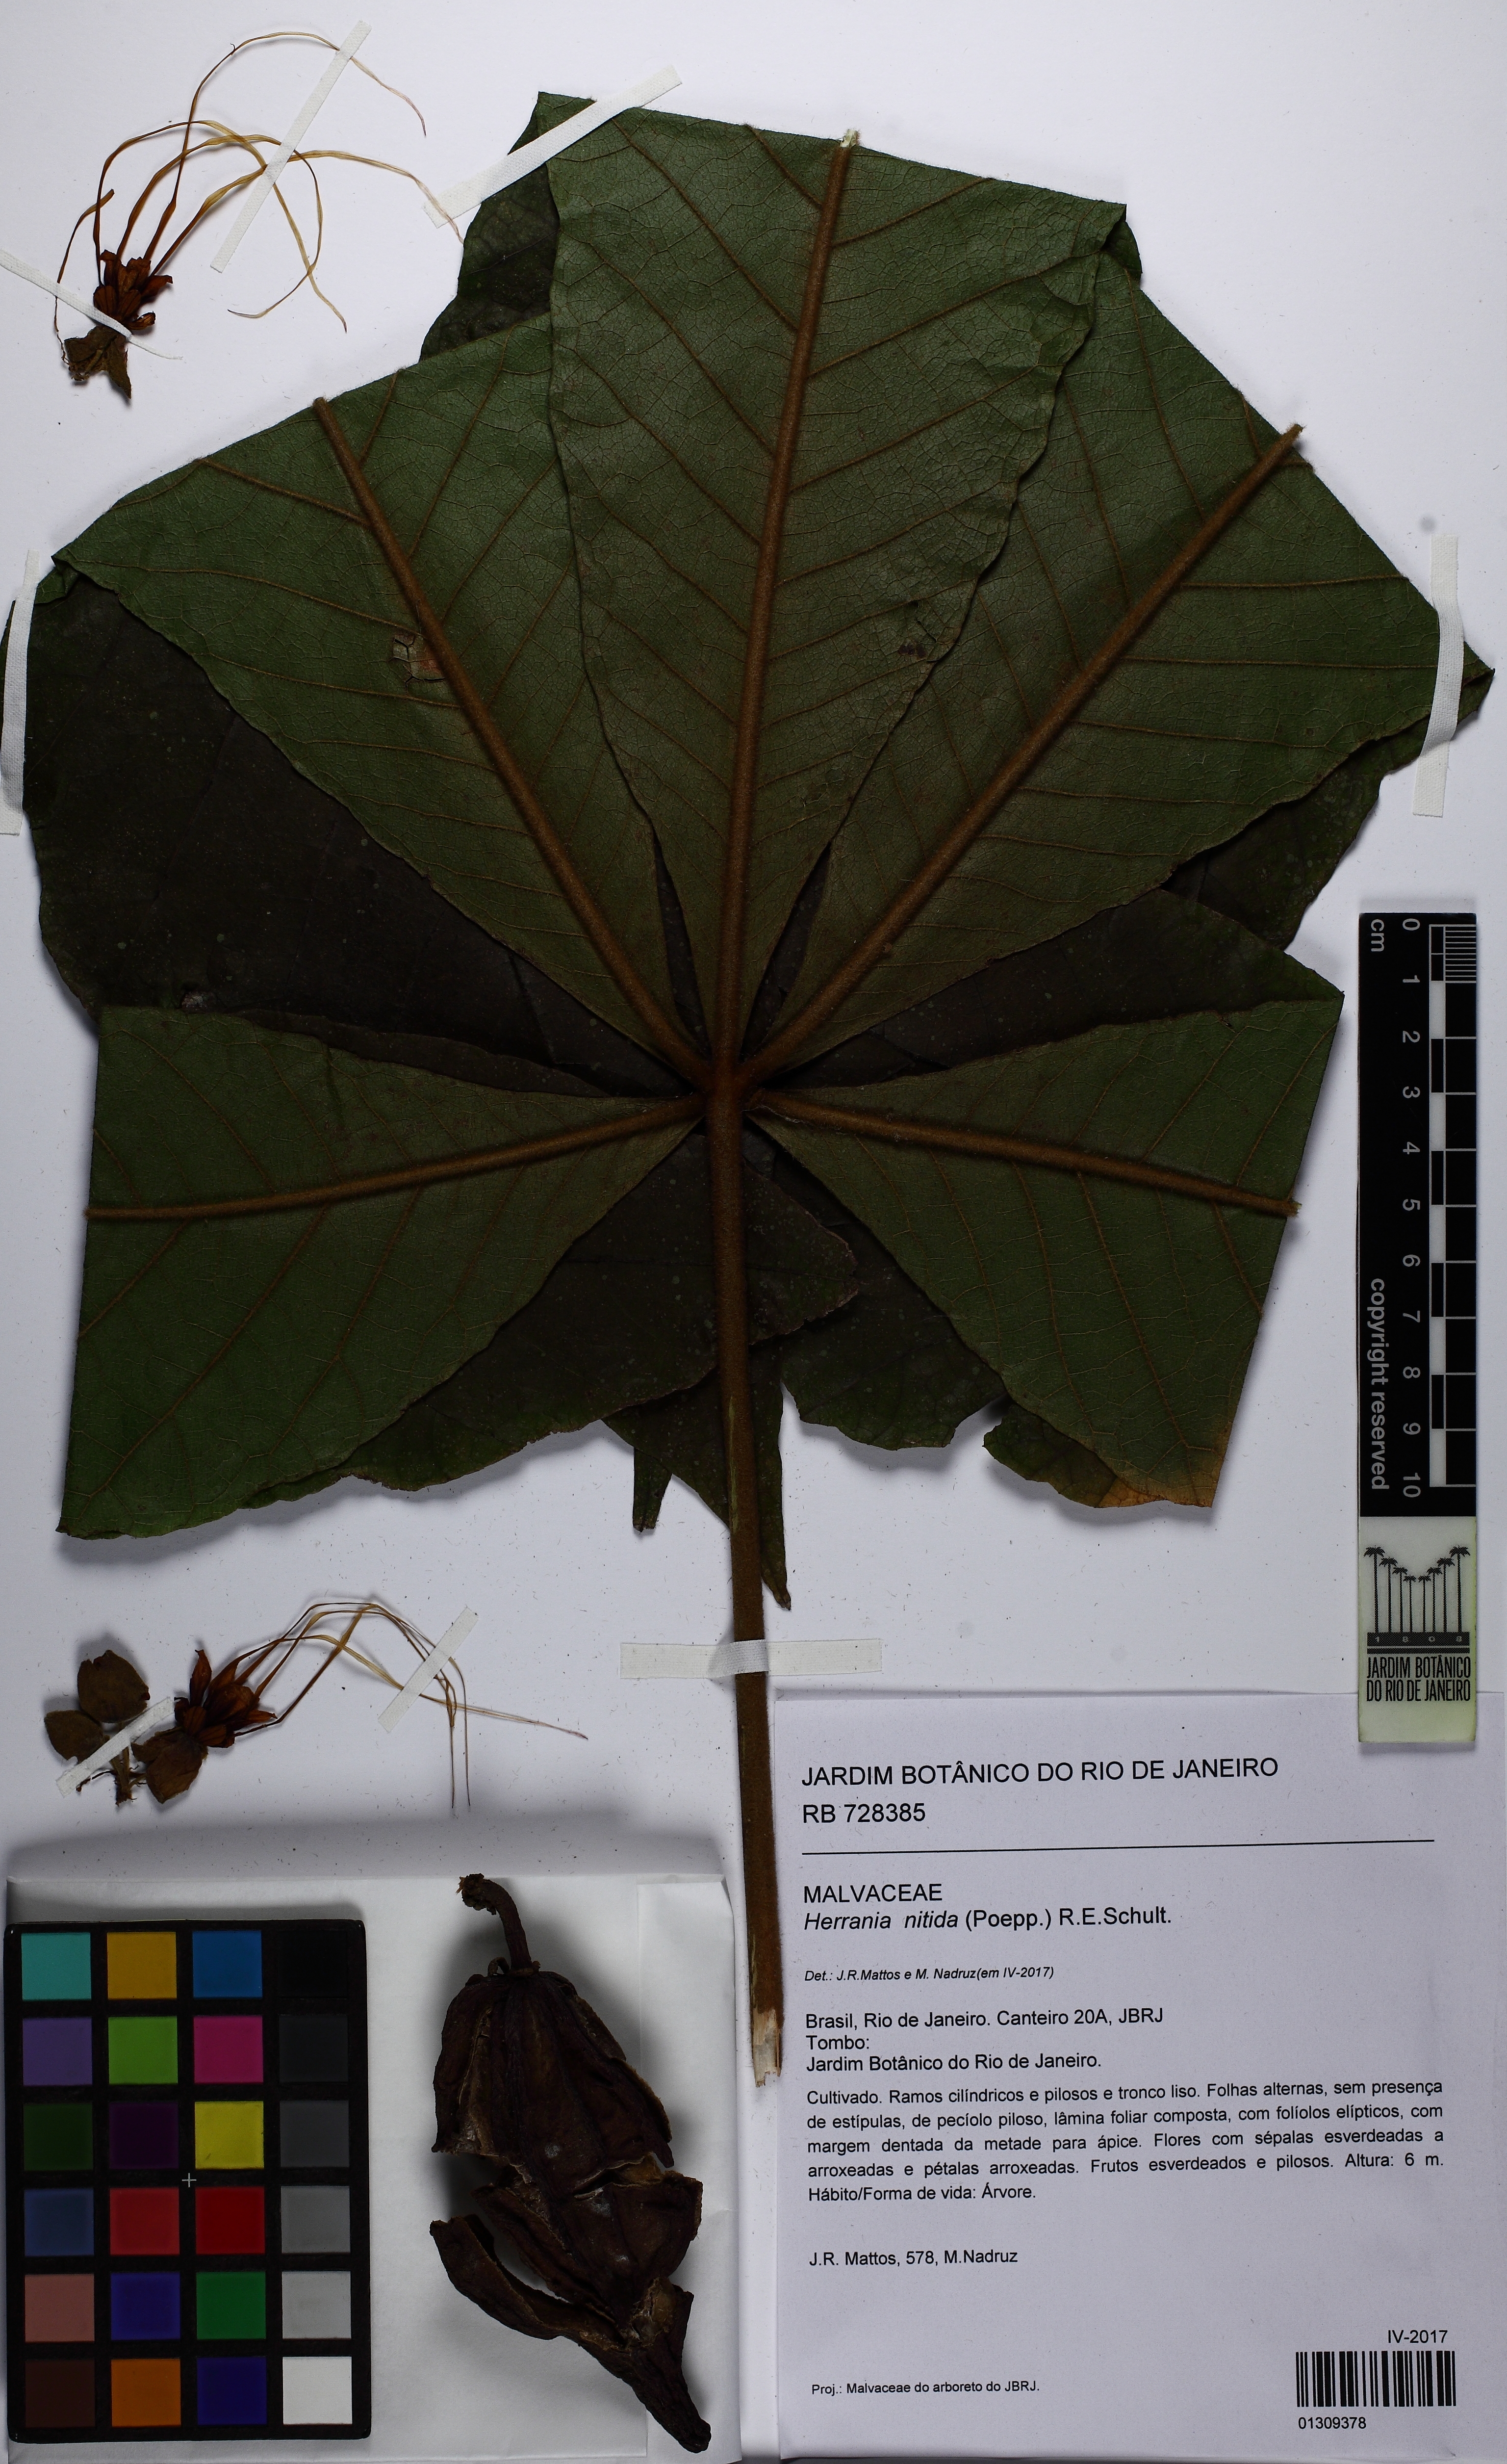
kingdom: Plantae
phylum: Tracheophyta
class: Magnoliopsida
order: Malvales
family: Malvaceae
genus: Herrania
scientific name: Herrania mariae
